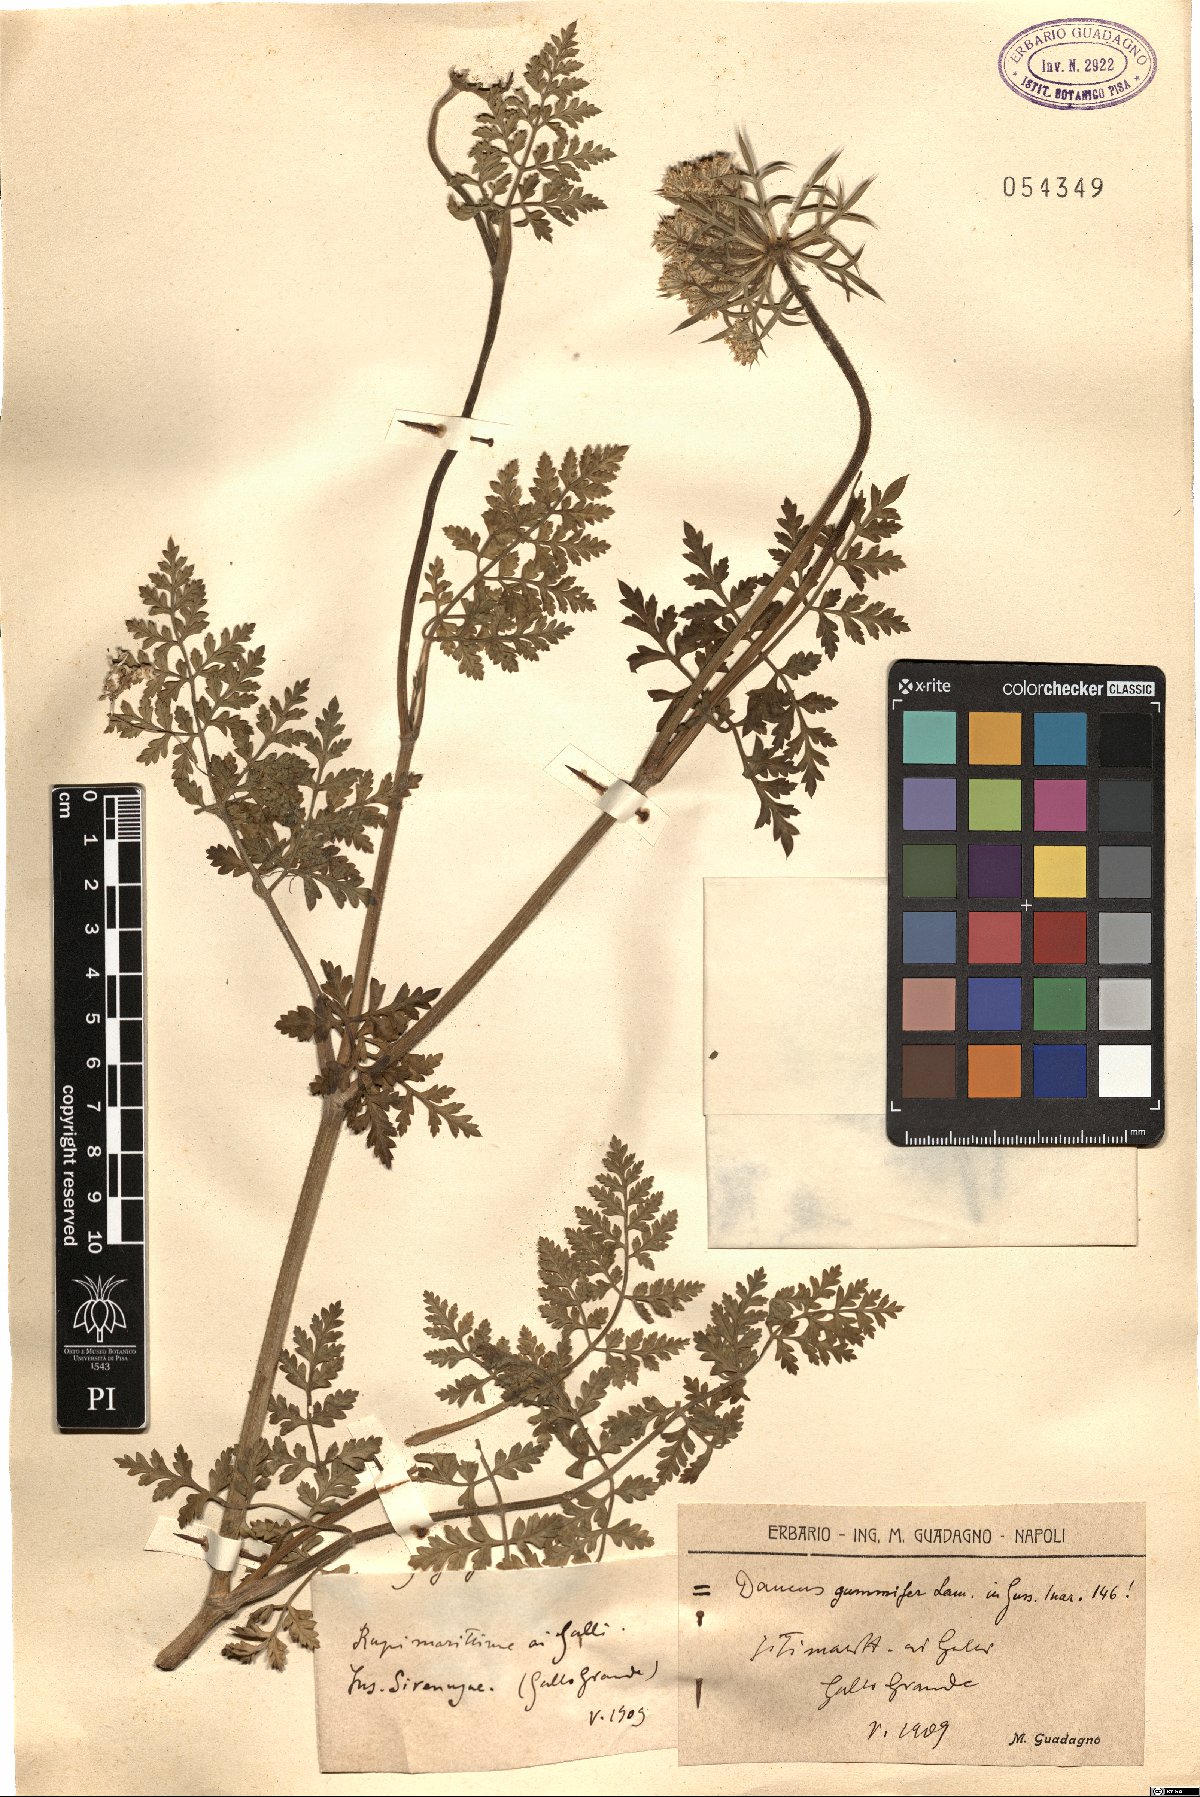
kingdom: Plantae
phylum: Tracheophyta
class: Magnoliopsida
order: Apiales
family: Apiaceae
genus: Daucus
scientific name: Daucus carota
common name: Wild carrot
